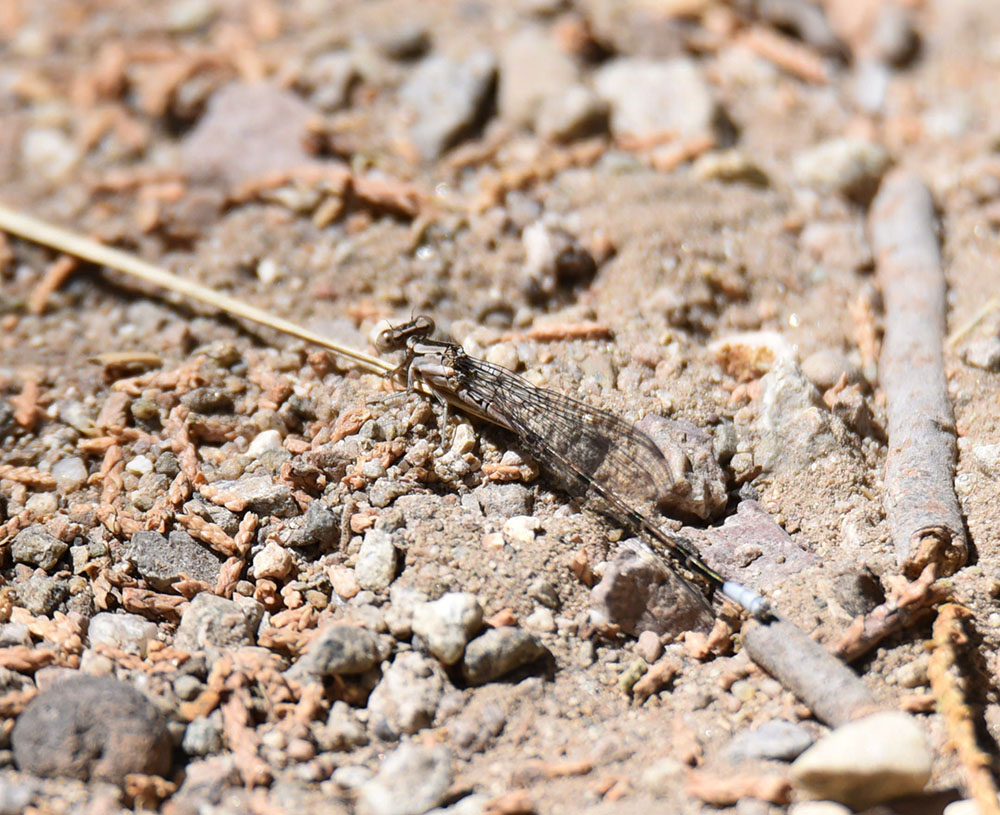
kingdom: Animalia
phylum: Arthropoda
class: Insecta
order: Odonata
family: Coenagrionidae
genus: Argia
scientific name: Argia munda
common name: Apache dancer
